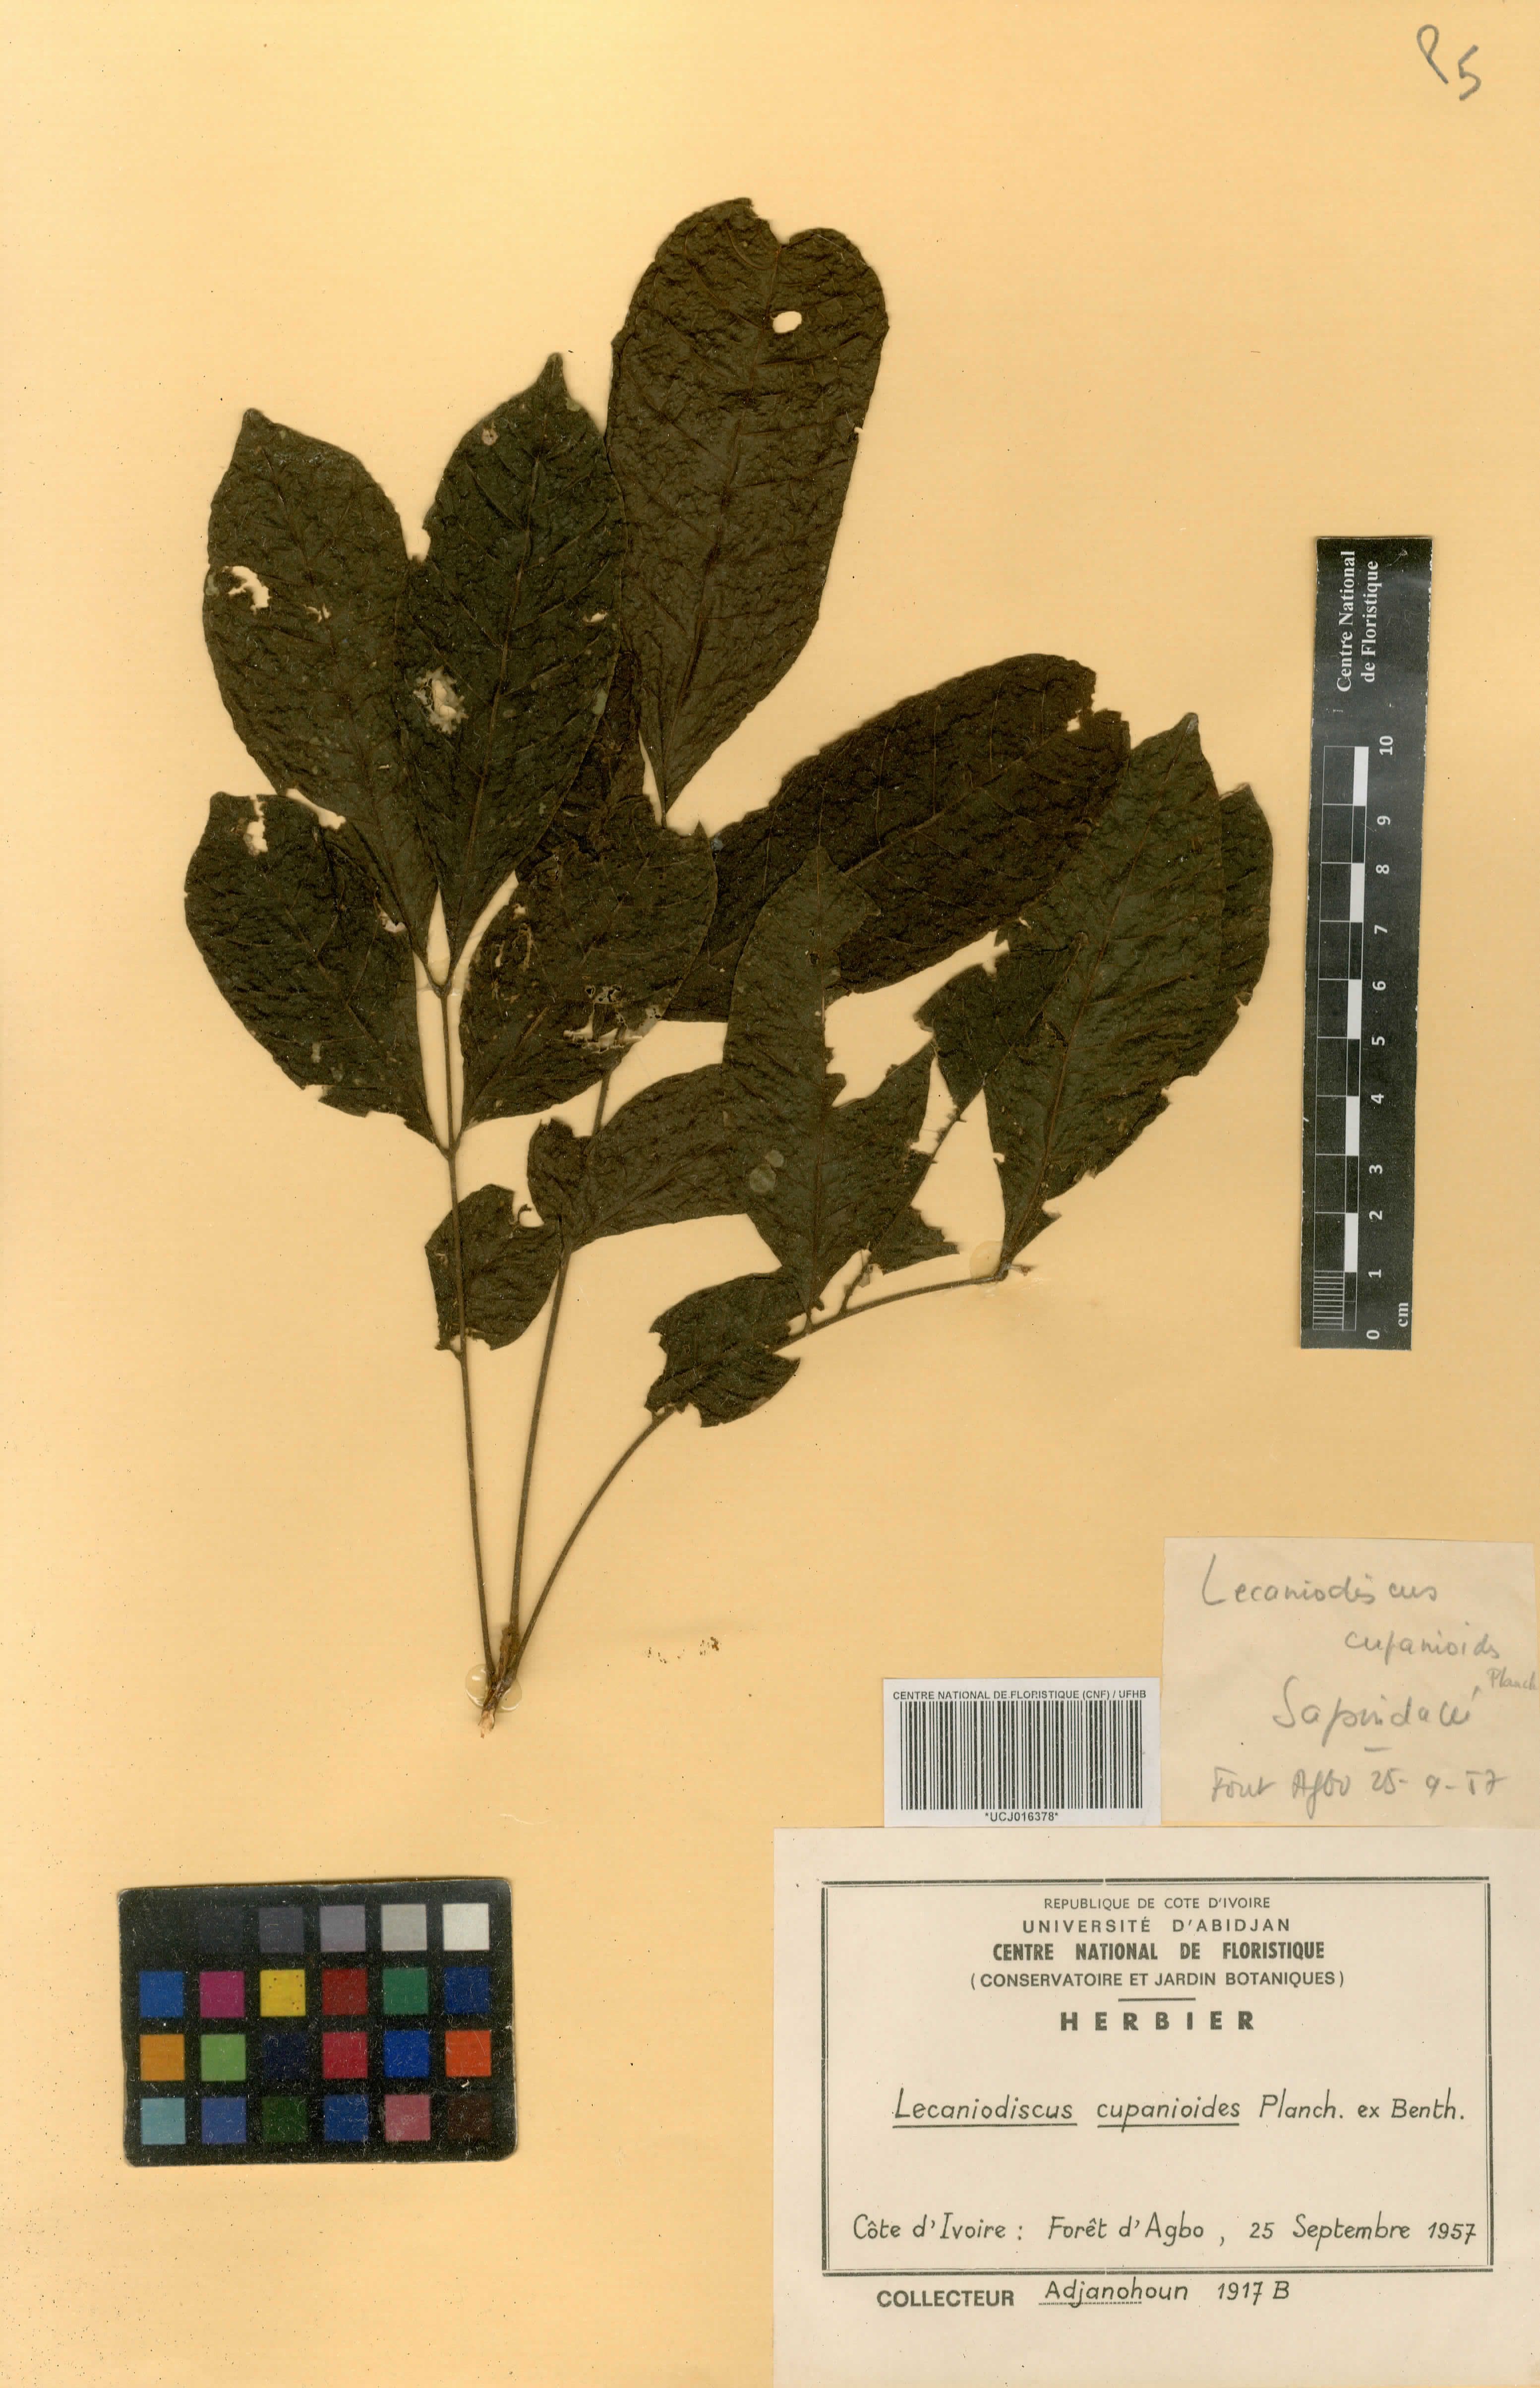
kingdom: Plantae
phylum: Tracheophyta
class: Magnoliopsida
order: Sapindales
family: Sapindaceae
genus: Lecaniodiscus
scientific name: Lecaniodiscus cupanioides
